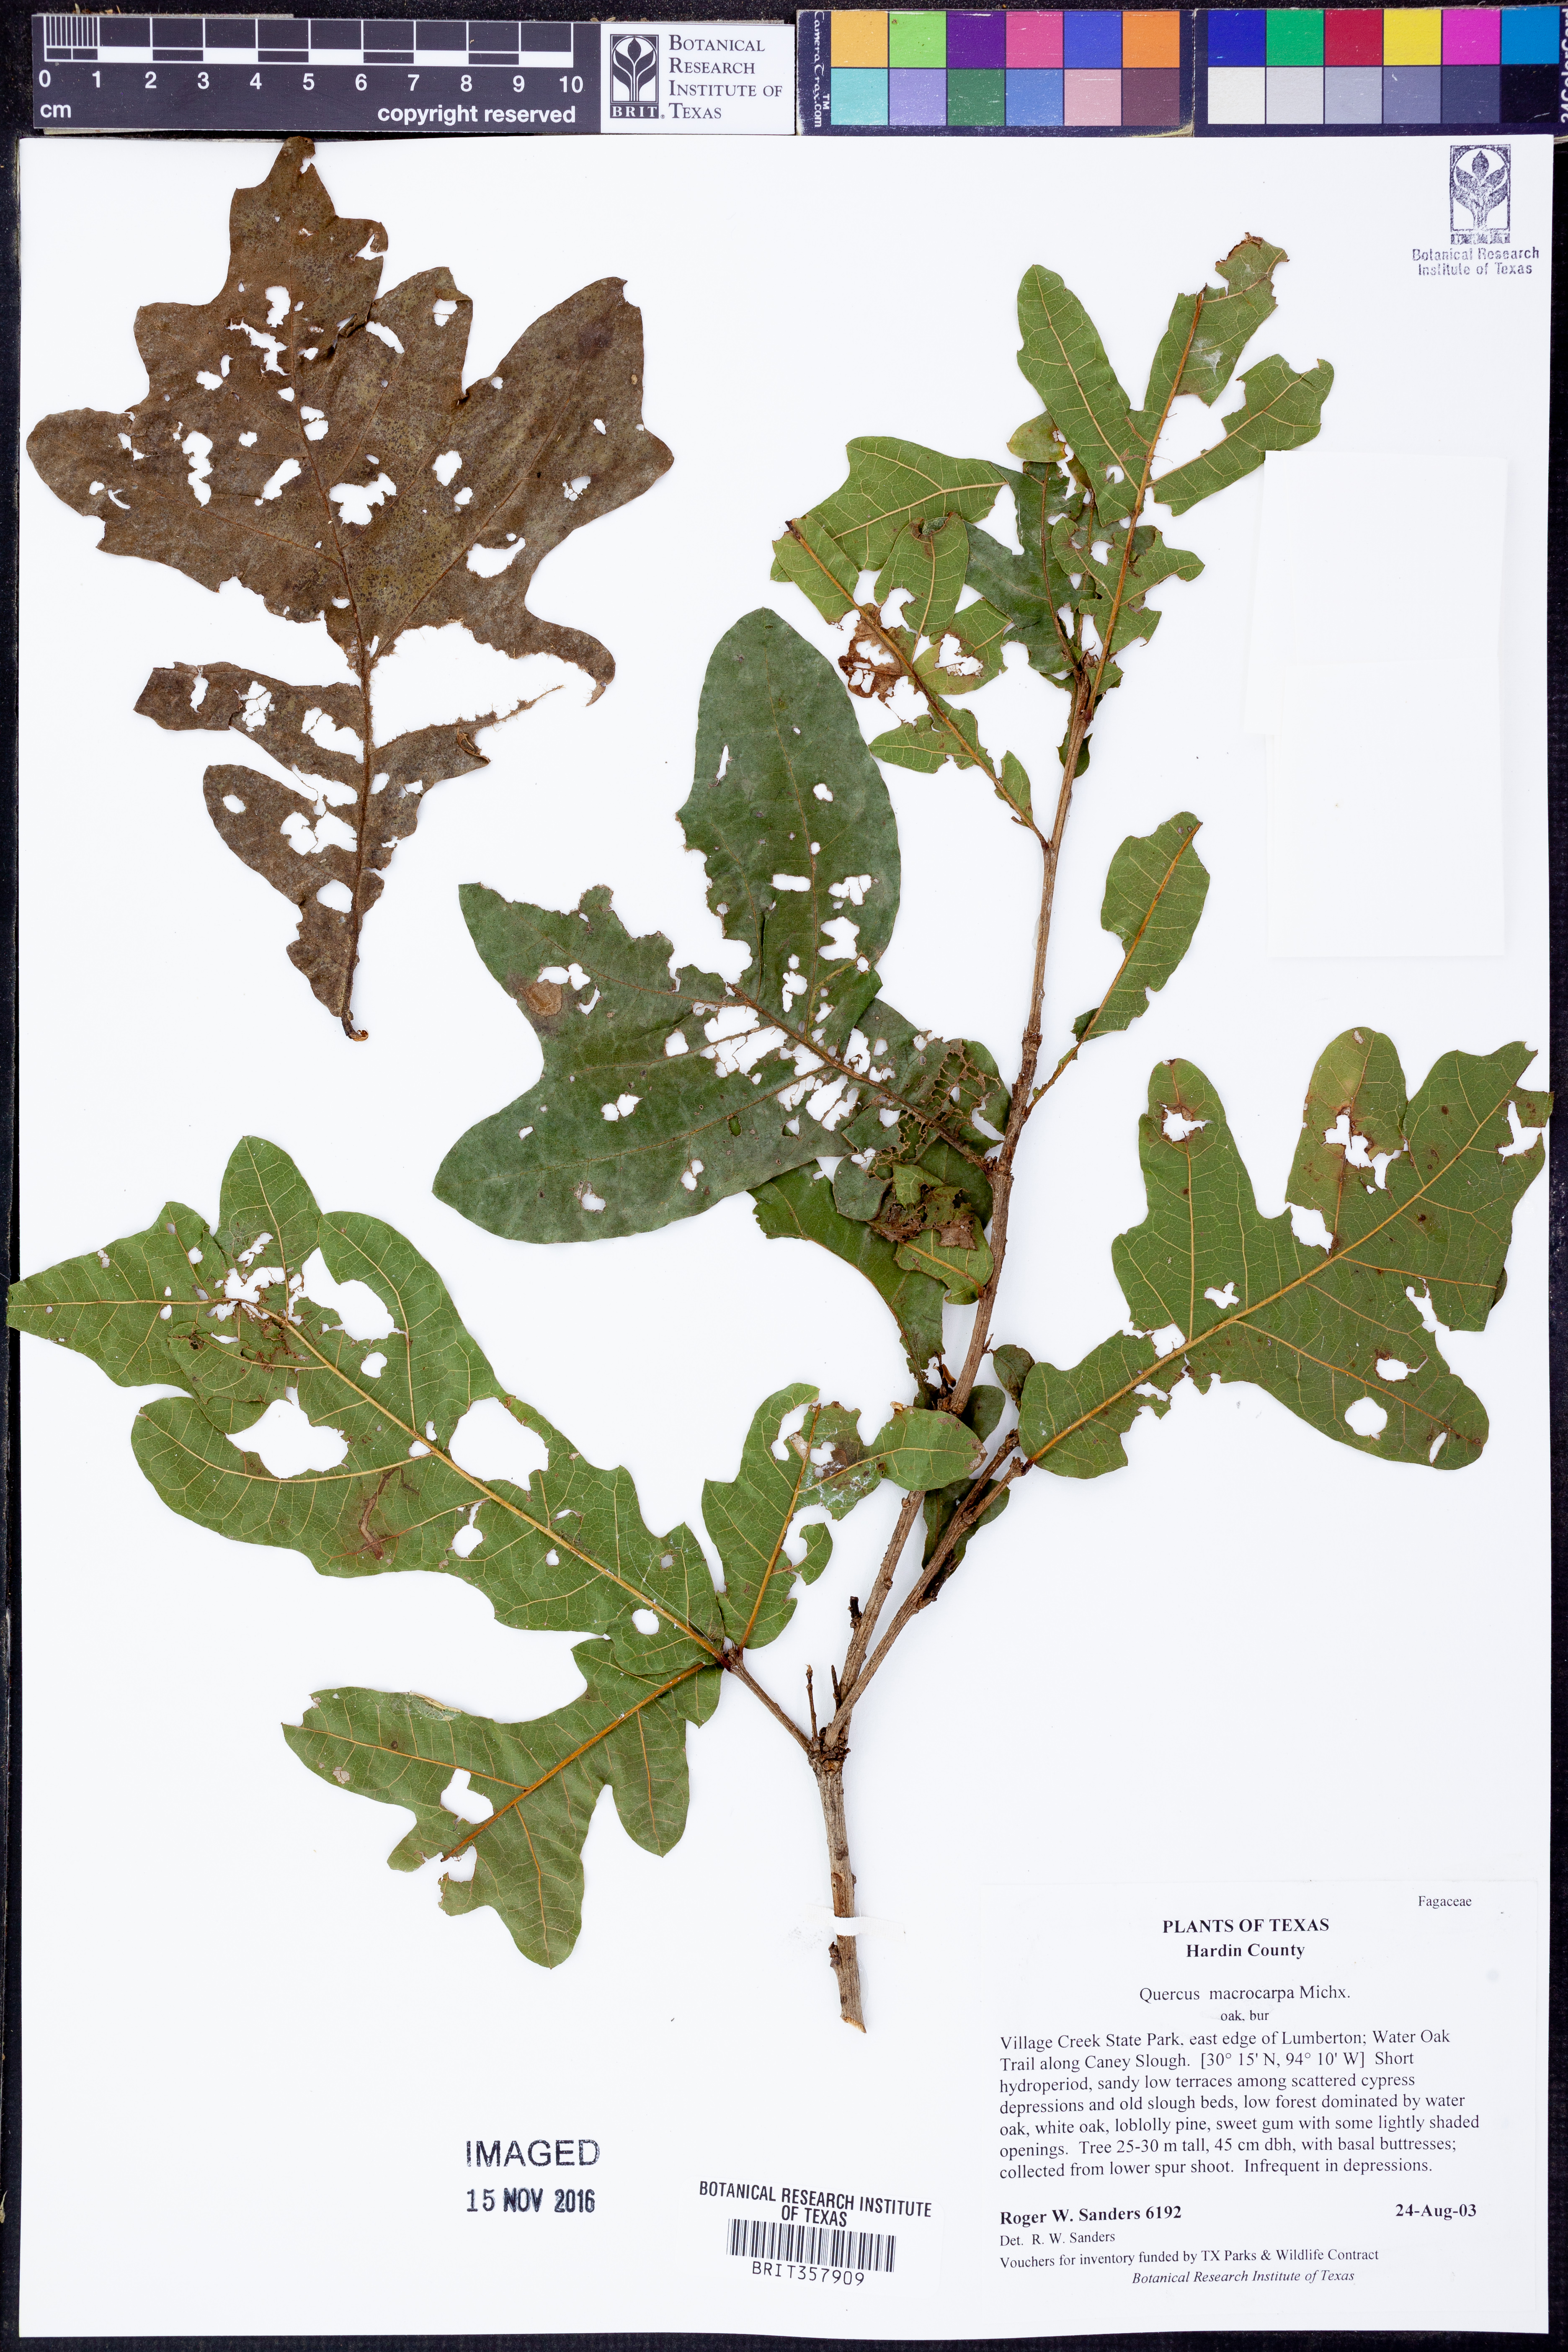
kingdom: Plantae
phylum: Tracheophyta
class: Magnoliopsida
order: Fagales
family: Fagaceae
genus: Quercus
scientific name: Quercus macrocarpa
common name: Bur oak
